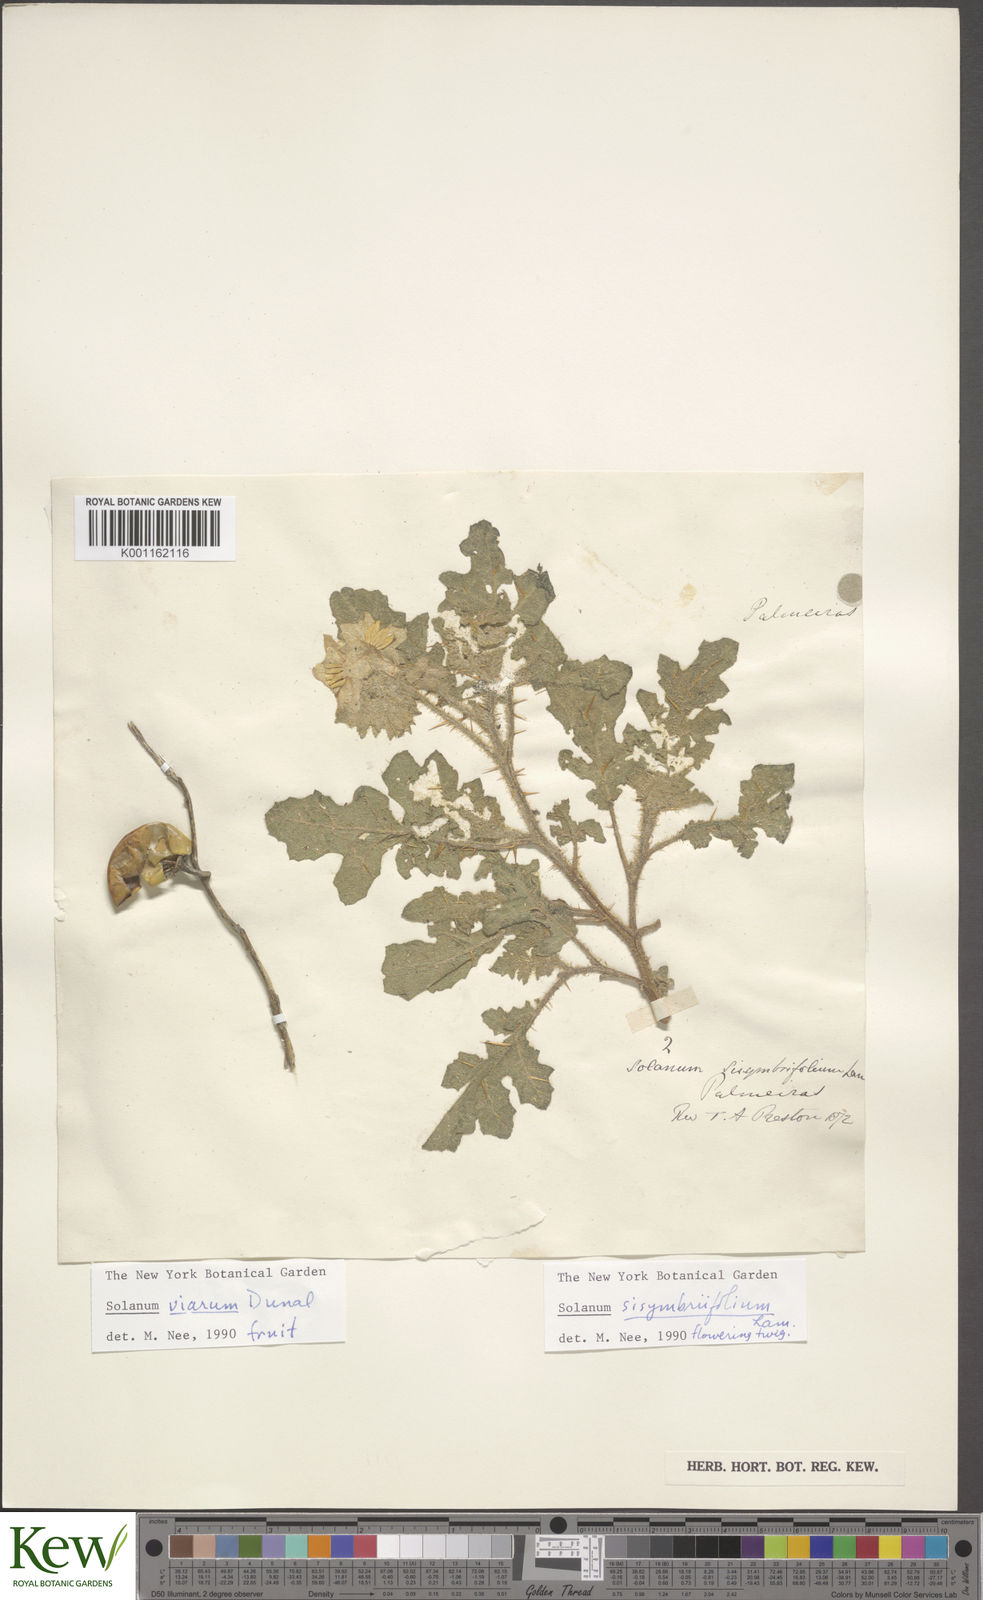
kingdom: Plantae
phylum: Tracheophyta
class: Magnoliopsida
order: Solanales
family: Solanaceae
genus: Solanum
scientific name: Solanum sisymbriifolium
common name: Red buffalo-bur
